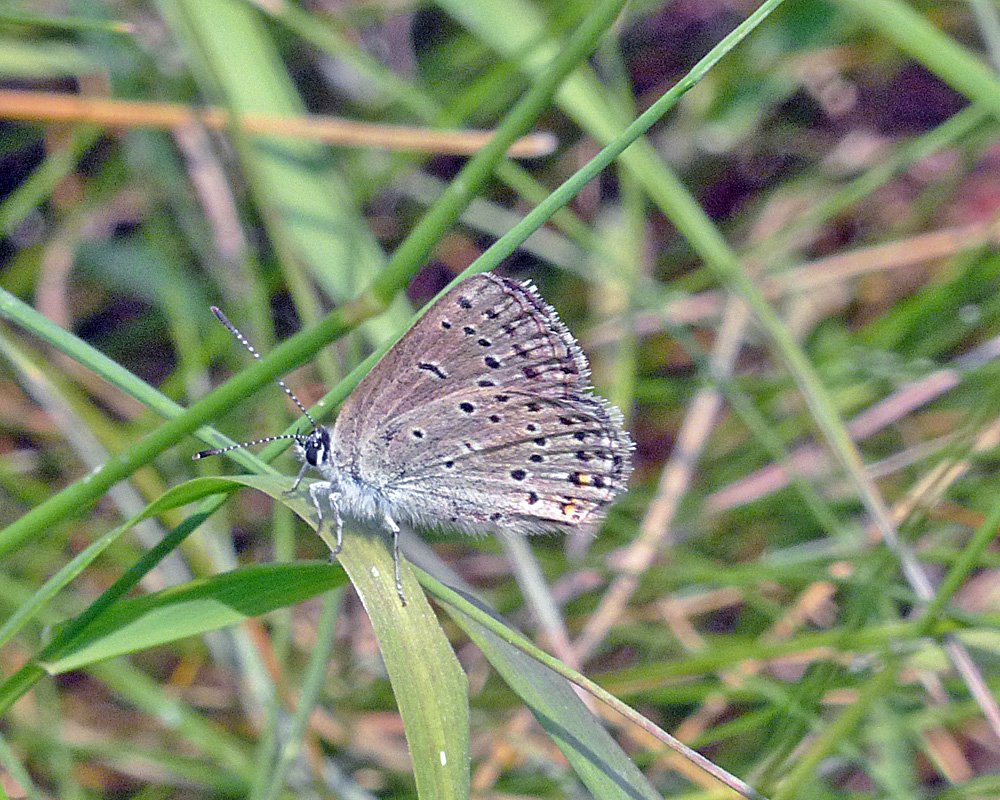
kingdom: Animalia
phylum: Arthropoda
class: Insecta
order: Lepidoptera
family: Lycaenidae
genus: Plebejus
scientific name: Plebejus saepiolus
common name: Greenish Blue
